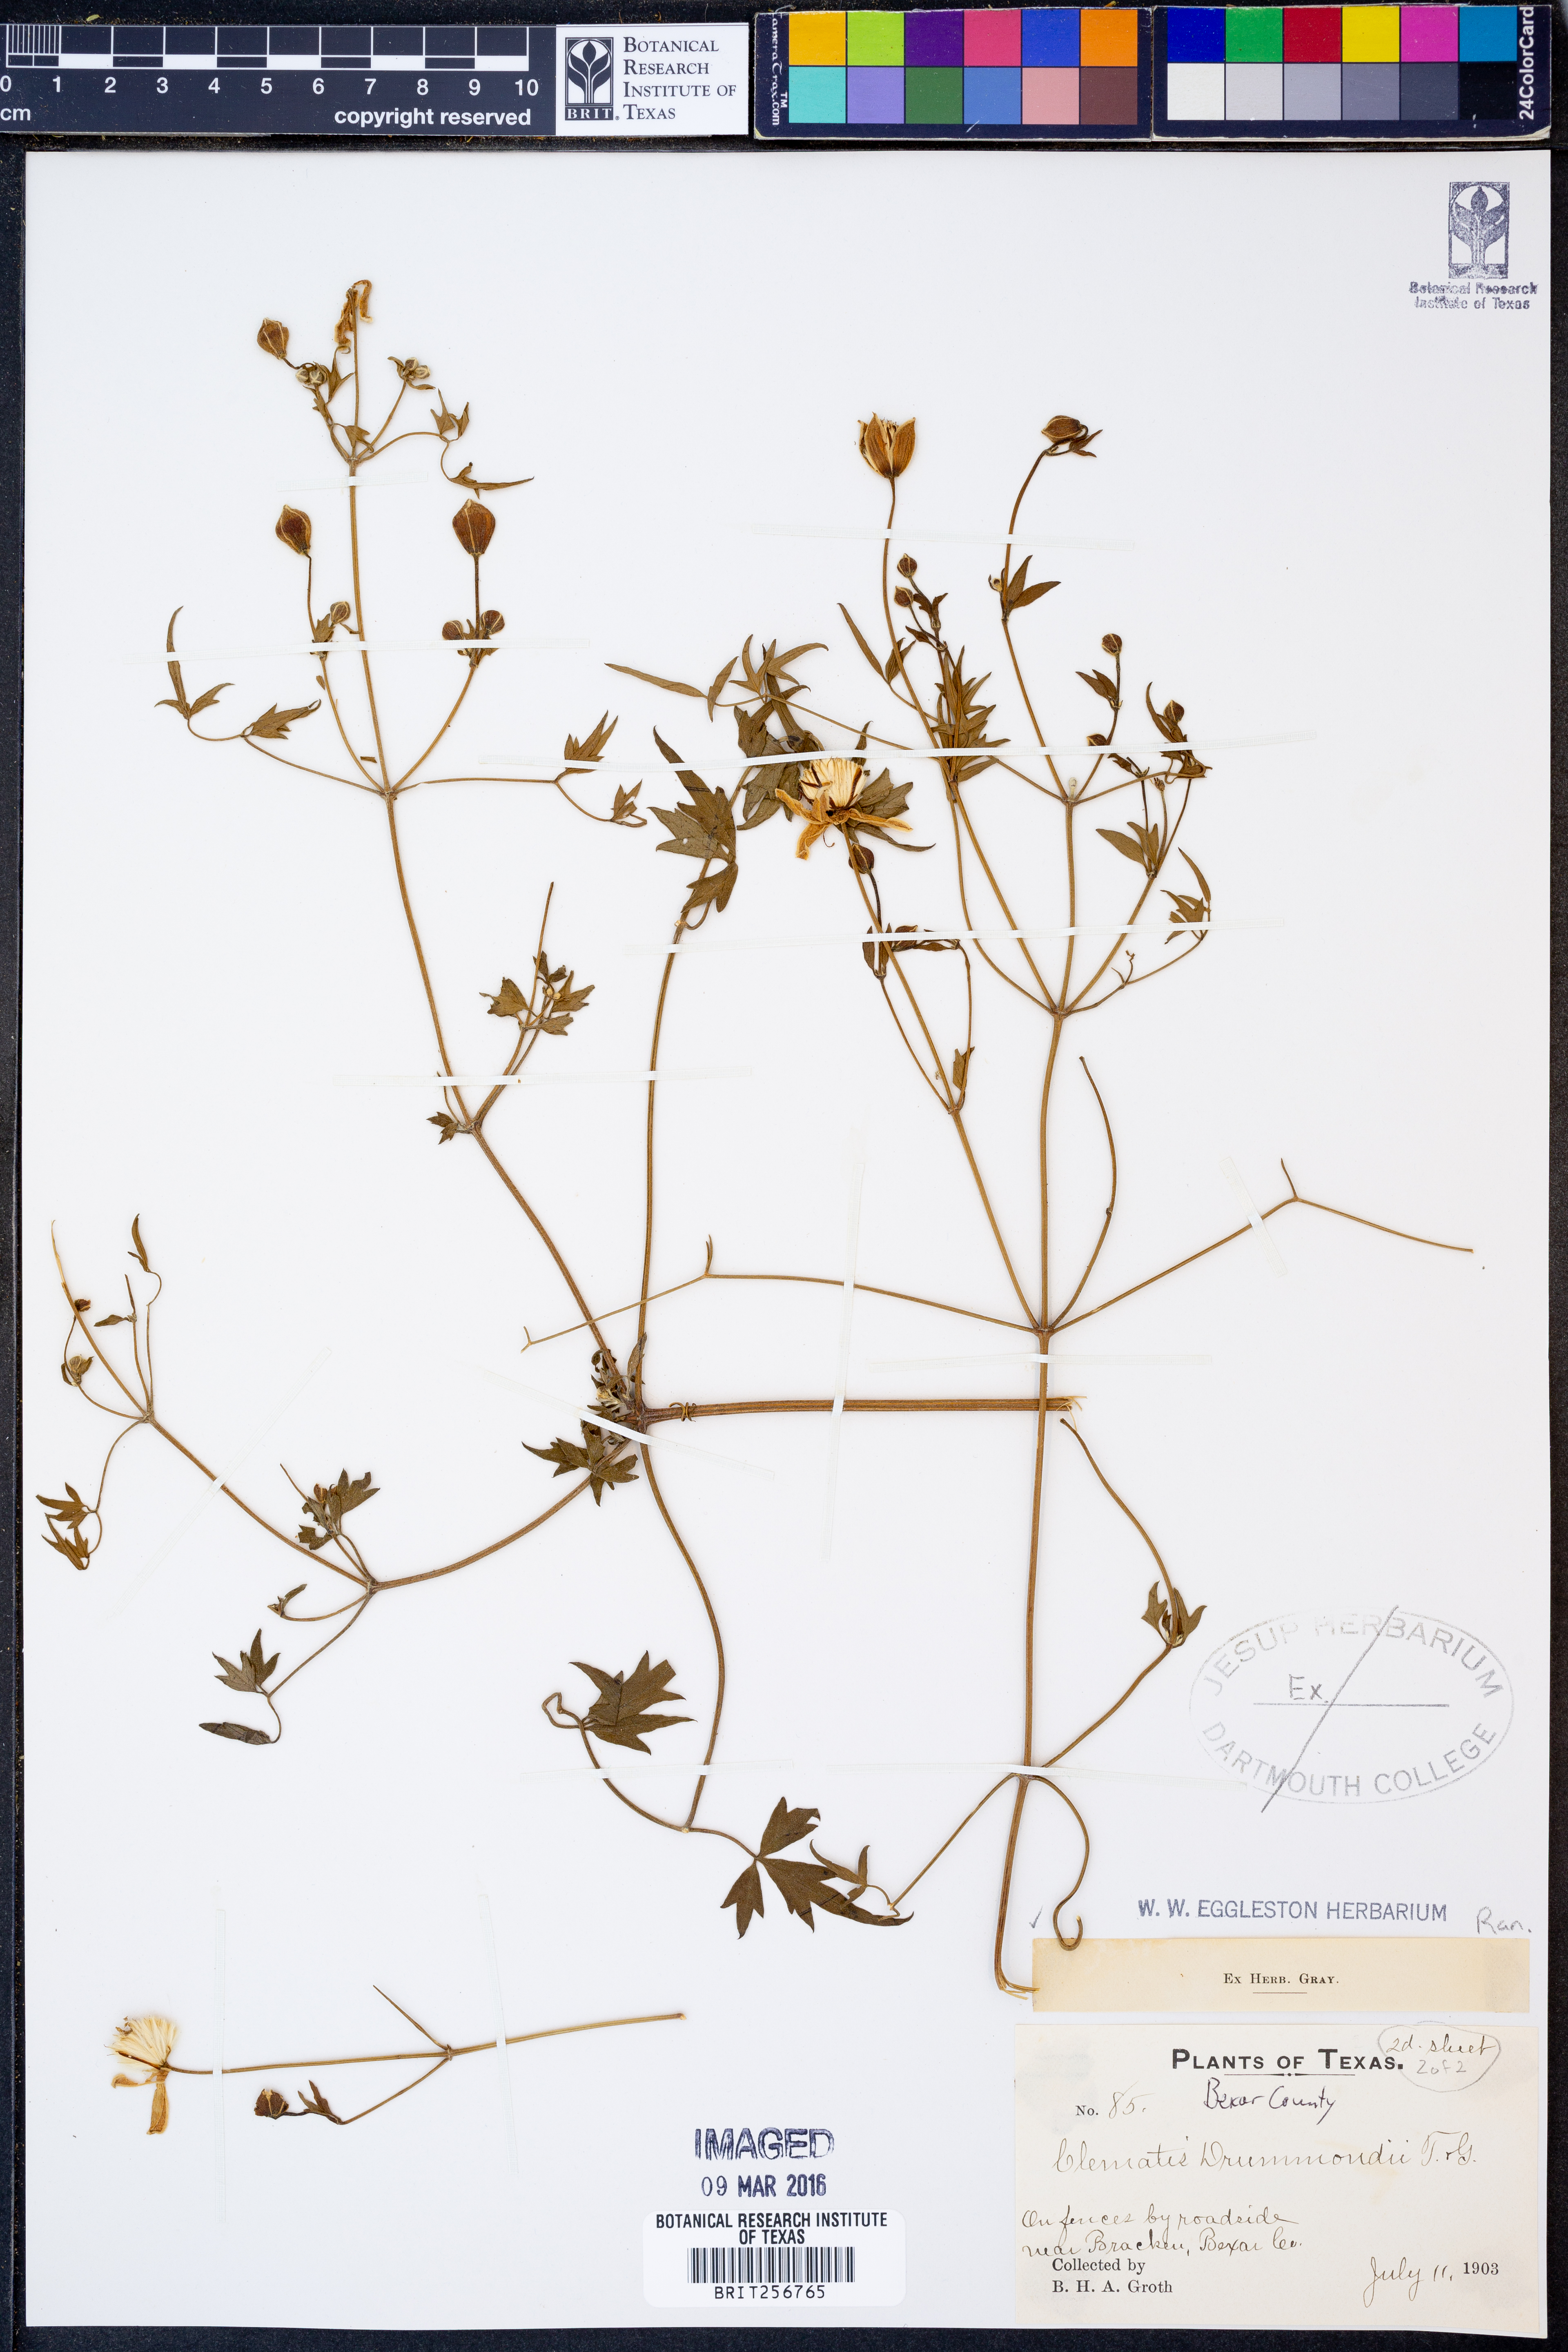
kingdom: Plantae
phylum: Tracheophyta
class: Magnoliopsida
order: Ranunculales
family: Ranunculaceae
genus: Clematis
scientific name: Clematis drummondii
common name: Texas virgin's bower
